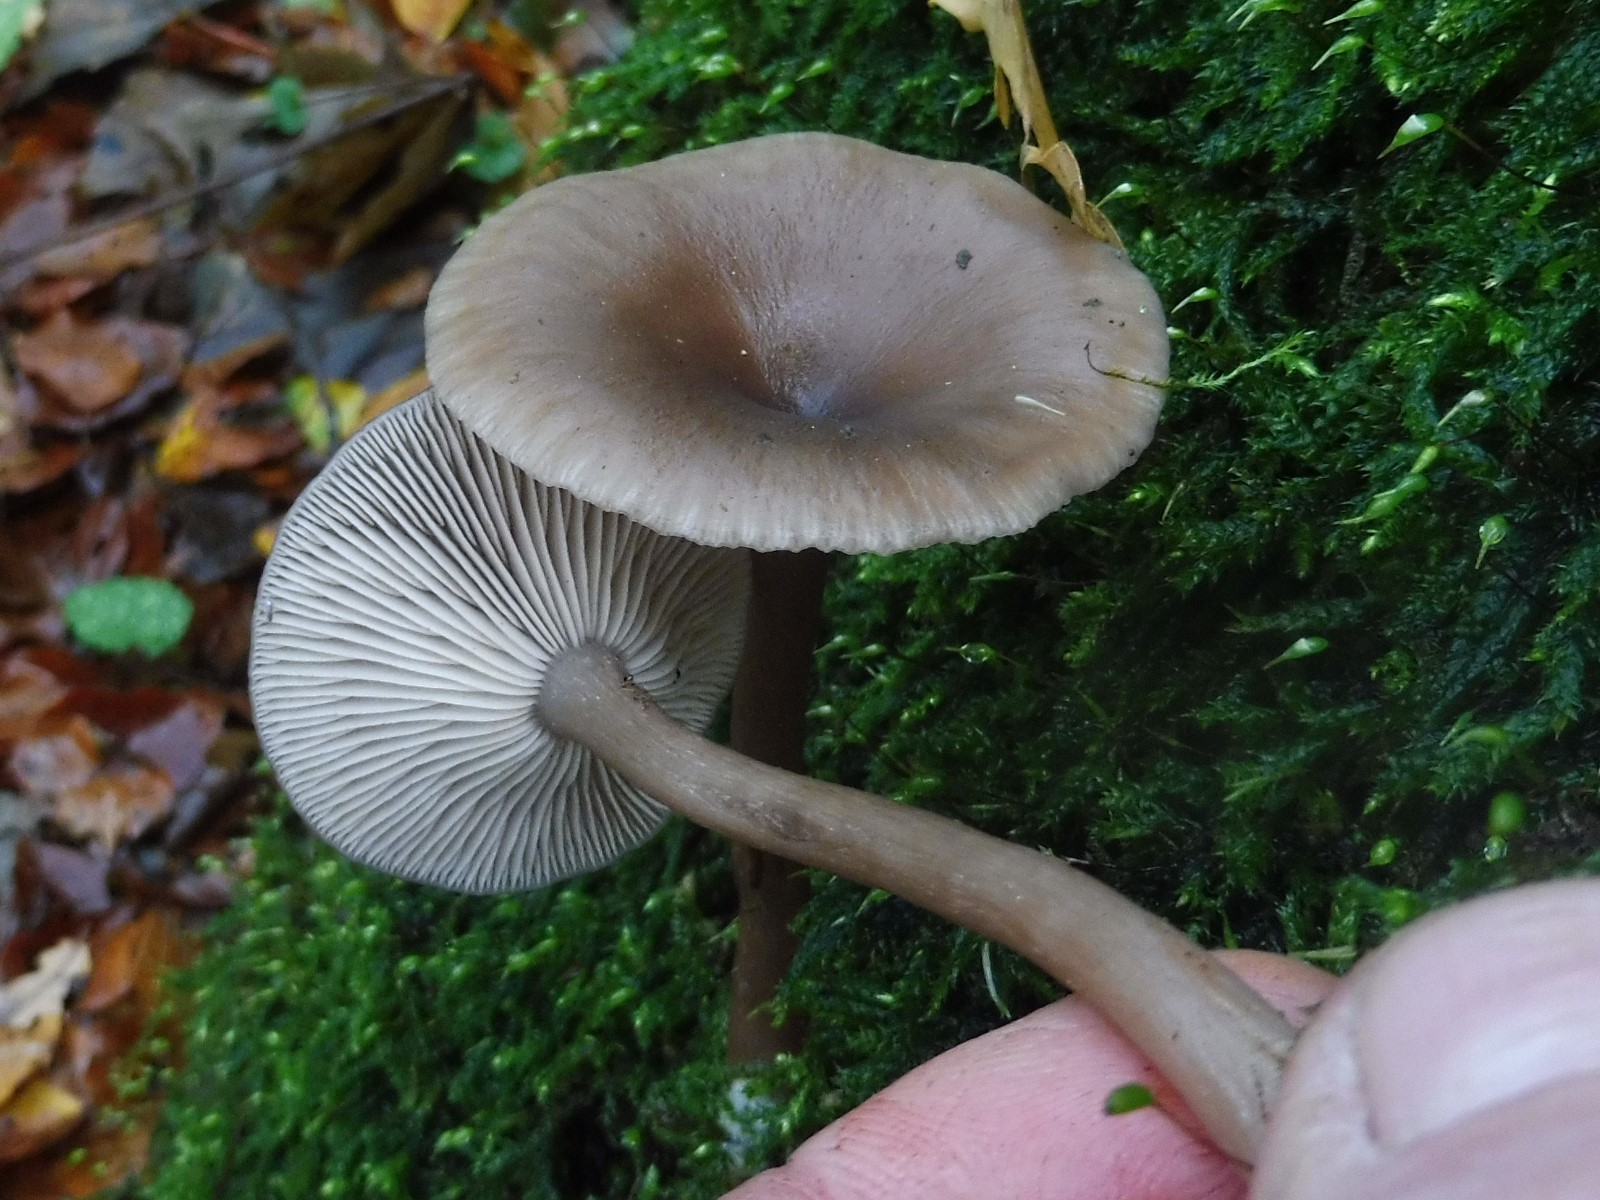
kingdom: Fungi
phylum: Basidiomycota
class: Agaricomycetes
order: Agaricales
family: Pseudoclitocybaceae
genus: Pseudoclitocybe
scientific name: Pseudoclitocybe cyathiformis
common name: almindelig bægertragthat
